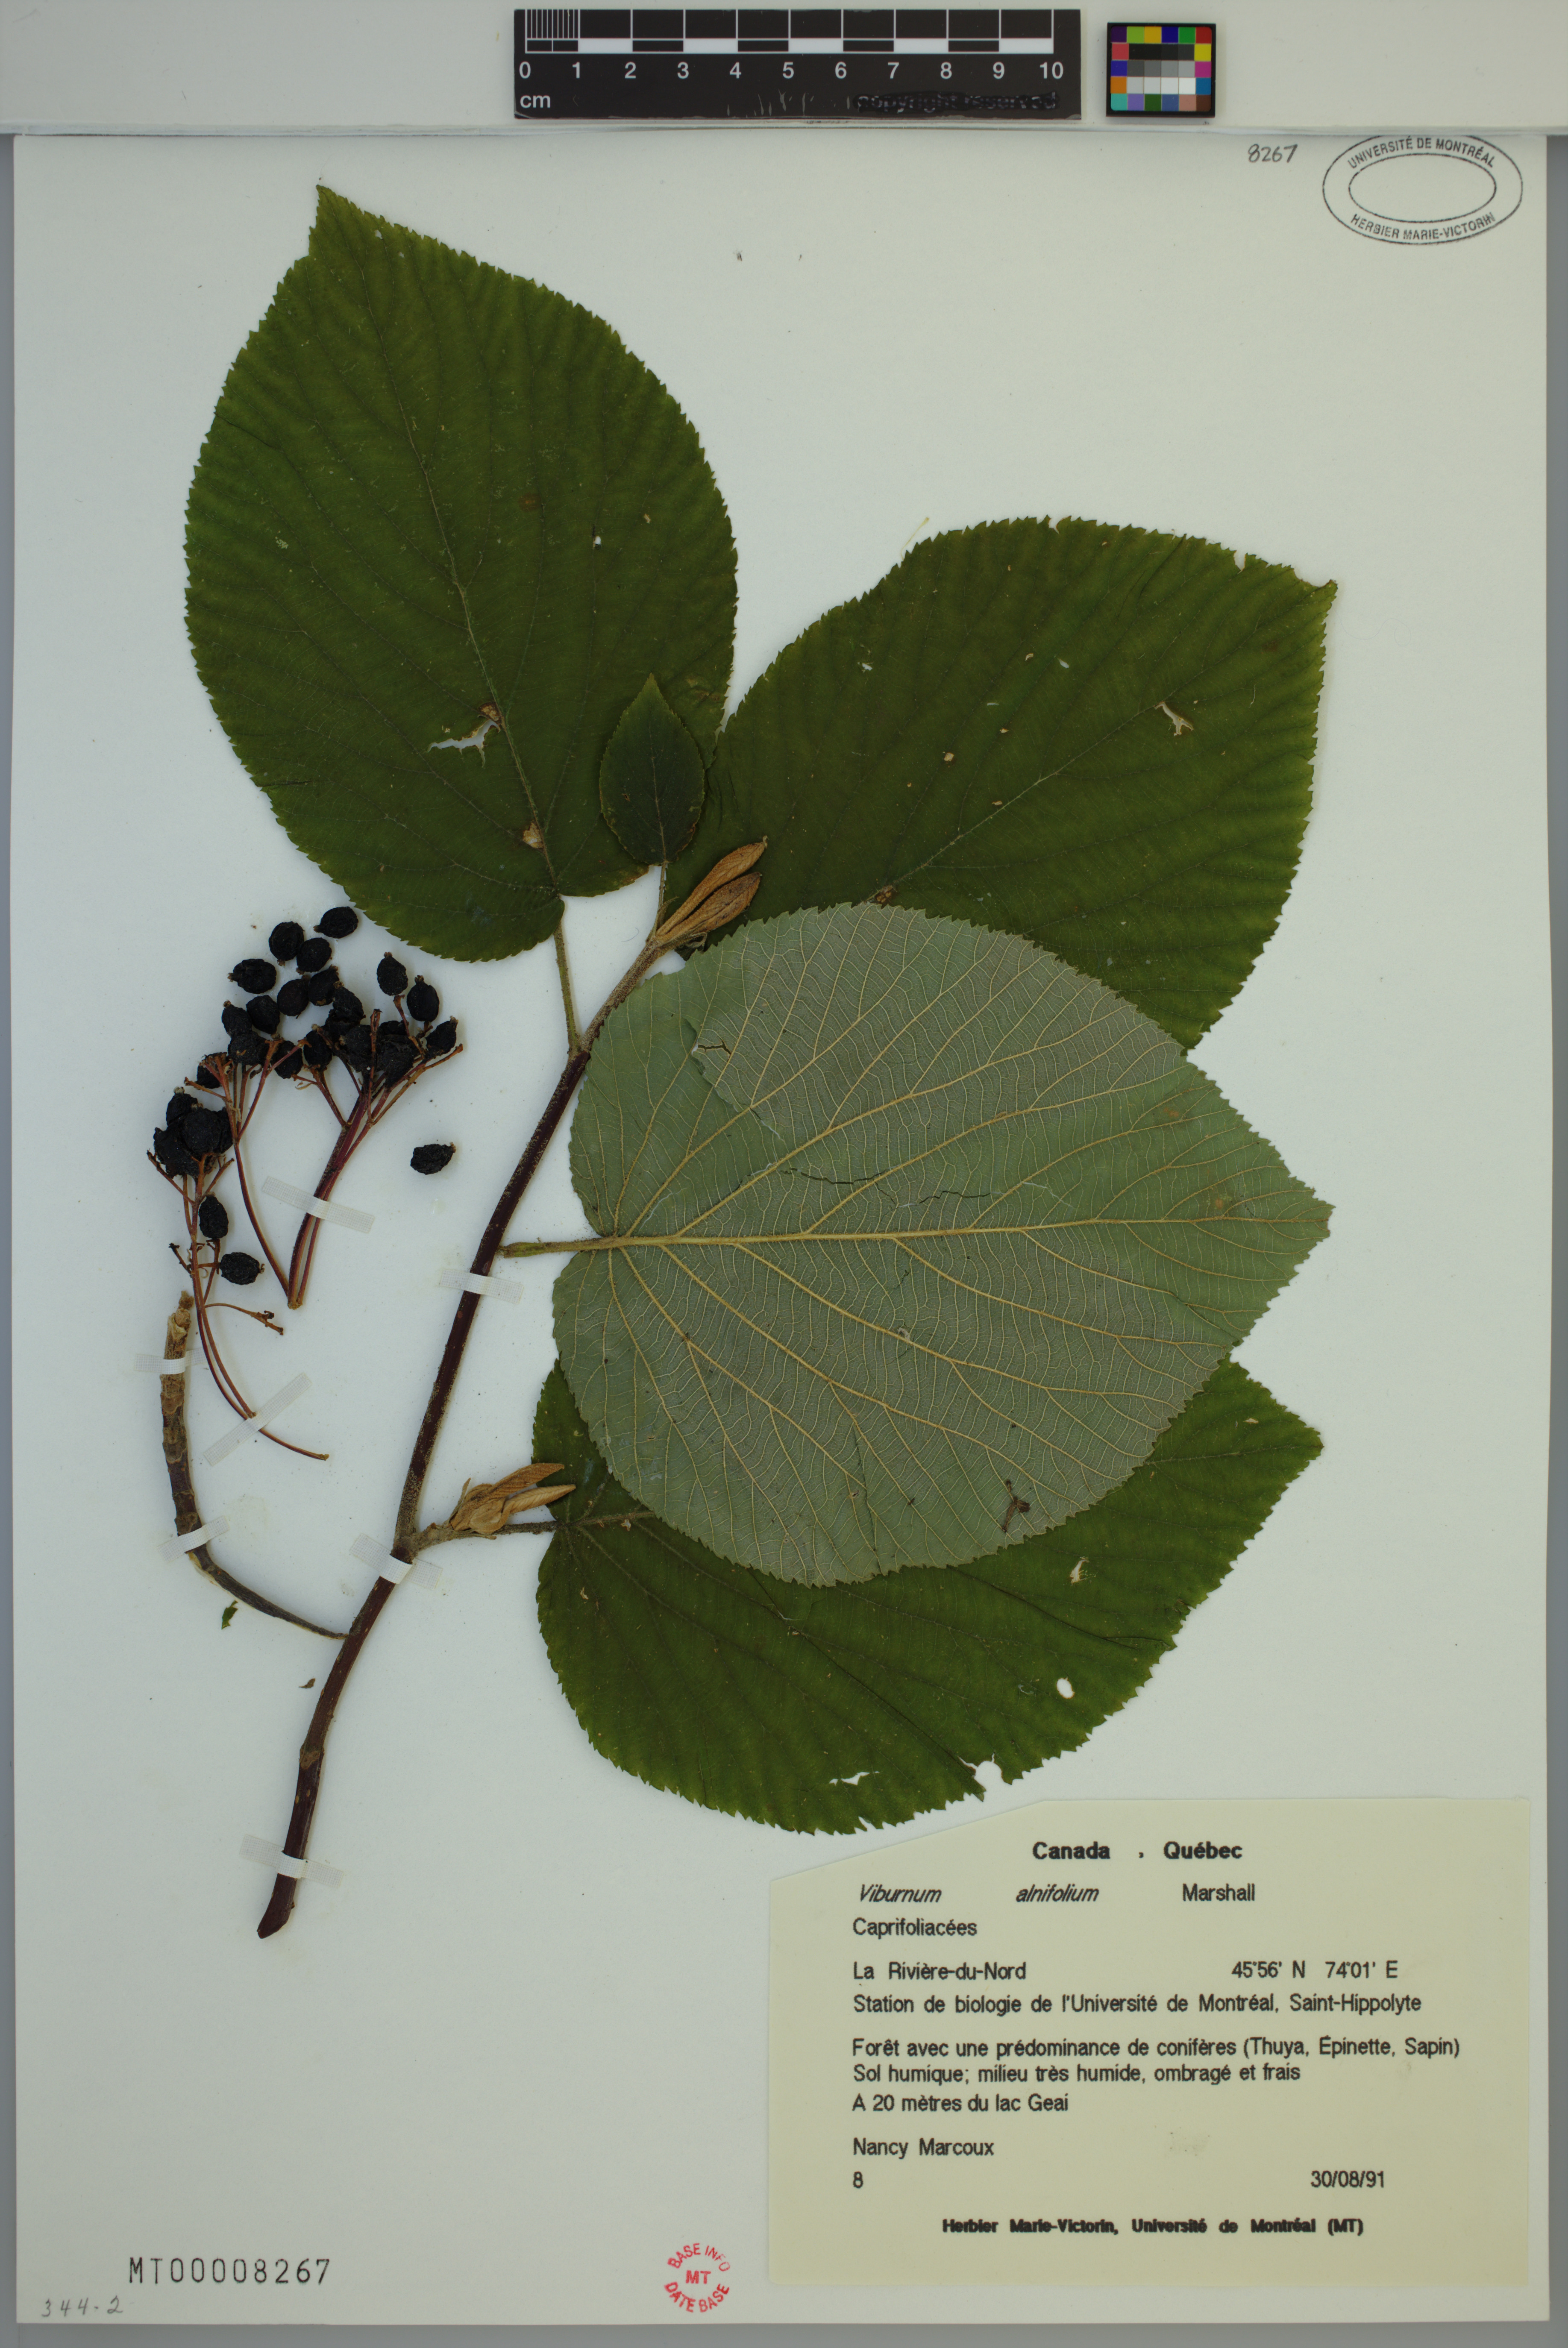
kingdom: Plantae
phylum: Tracheophyta
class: Magnoliopsida
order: Dipsacales
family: Viburnaceae
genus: Viburnum
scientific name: Viburnum lantanoides
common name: Hobblebush
